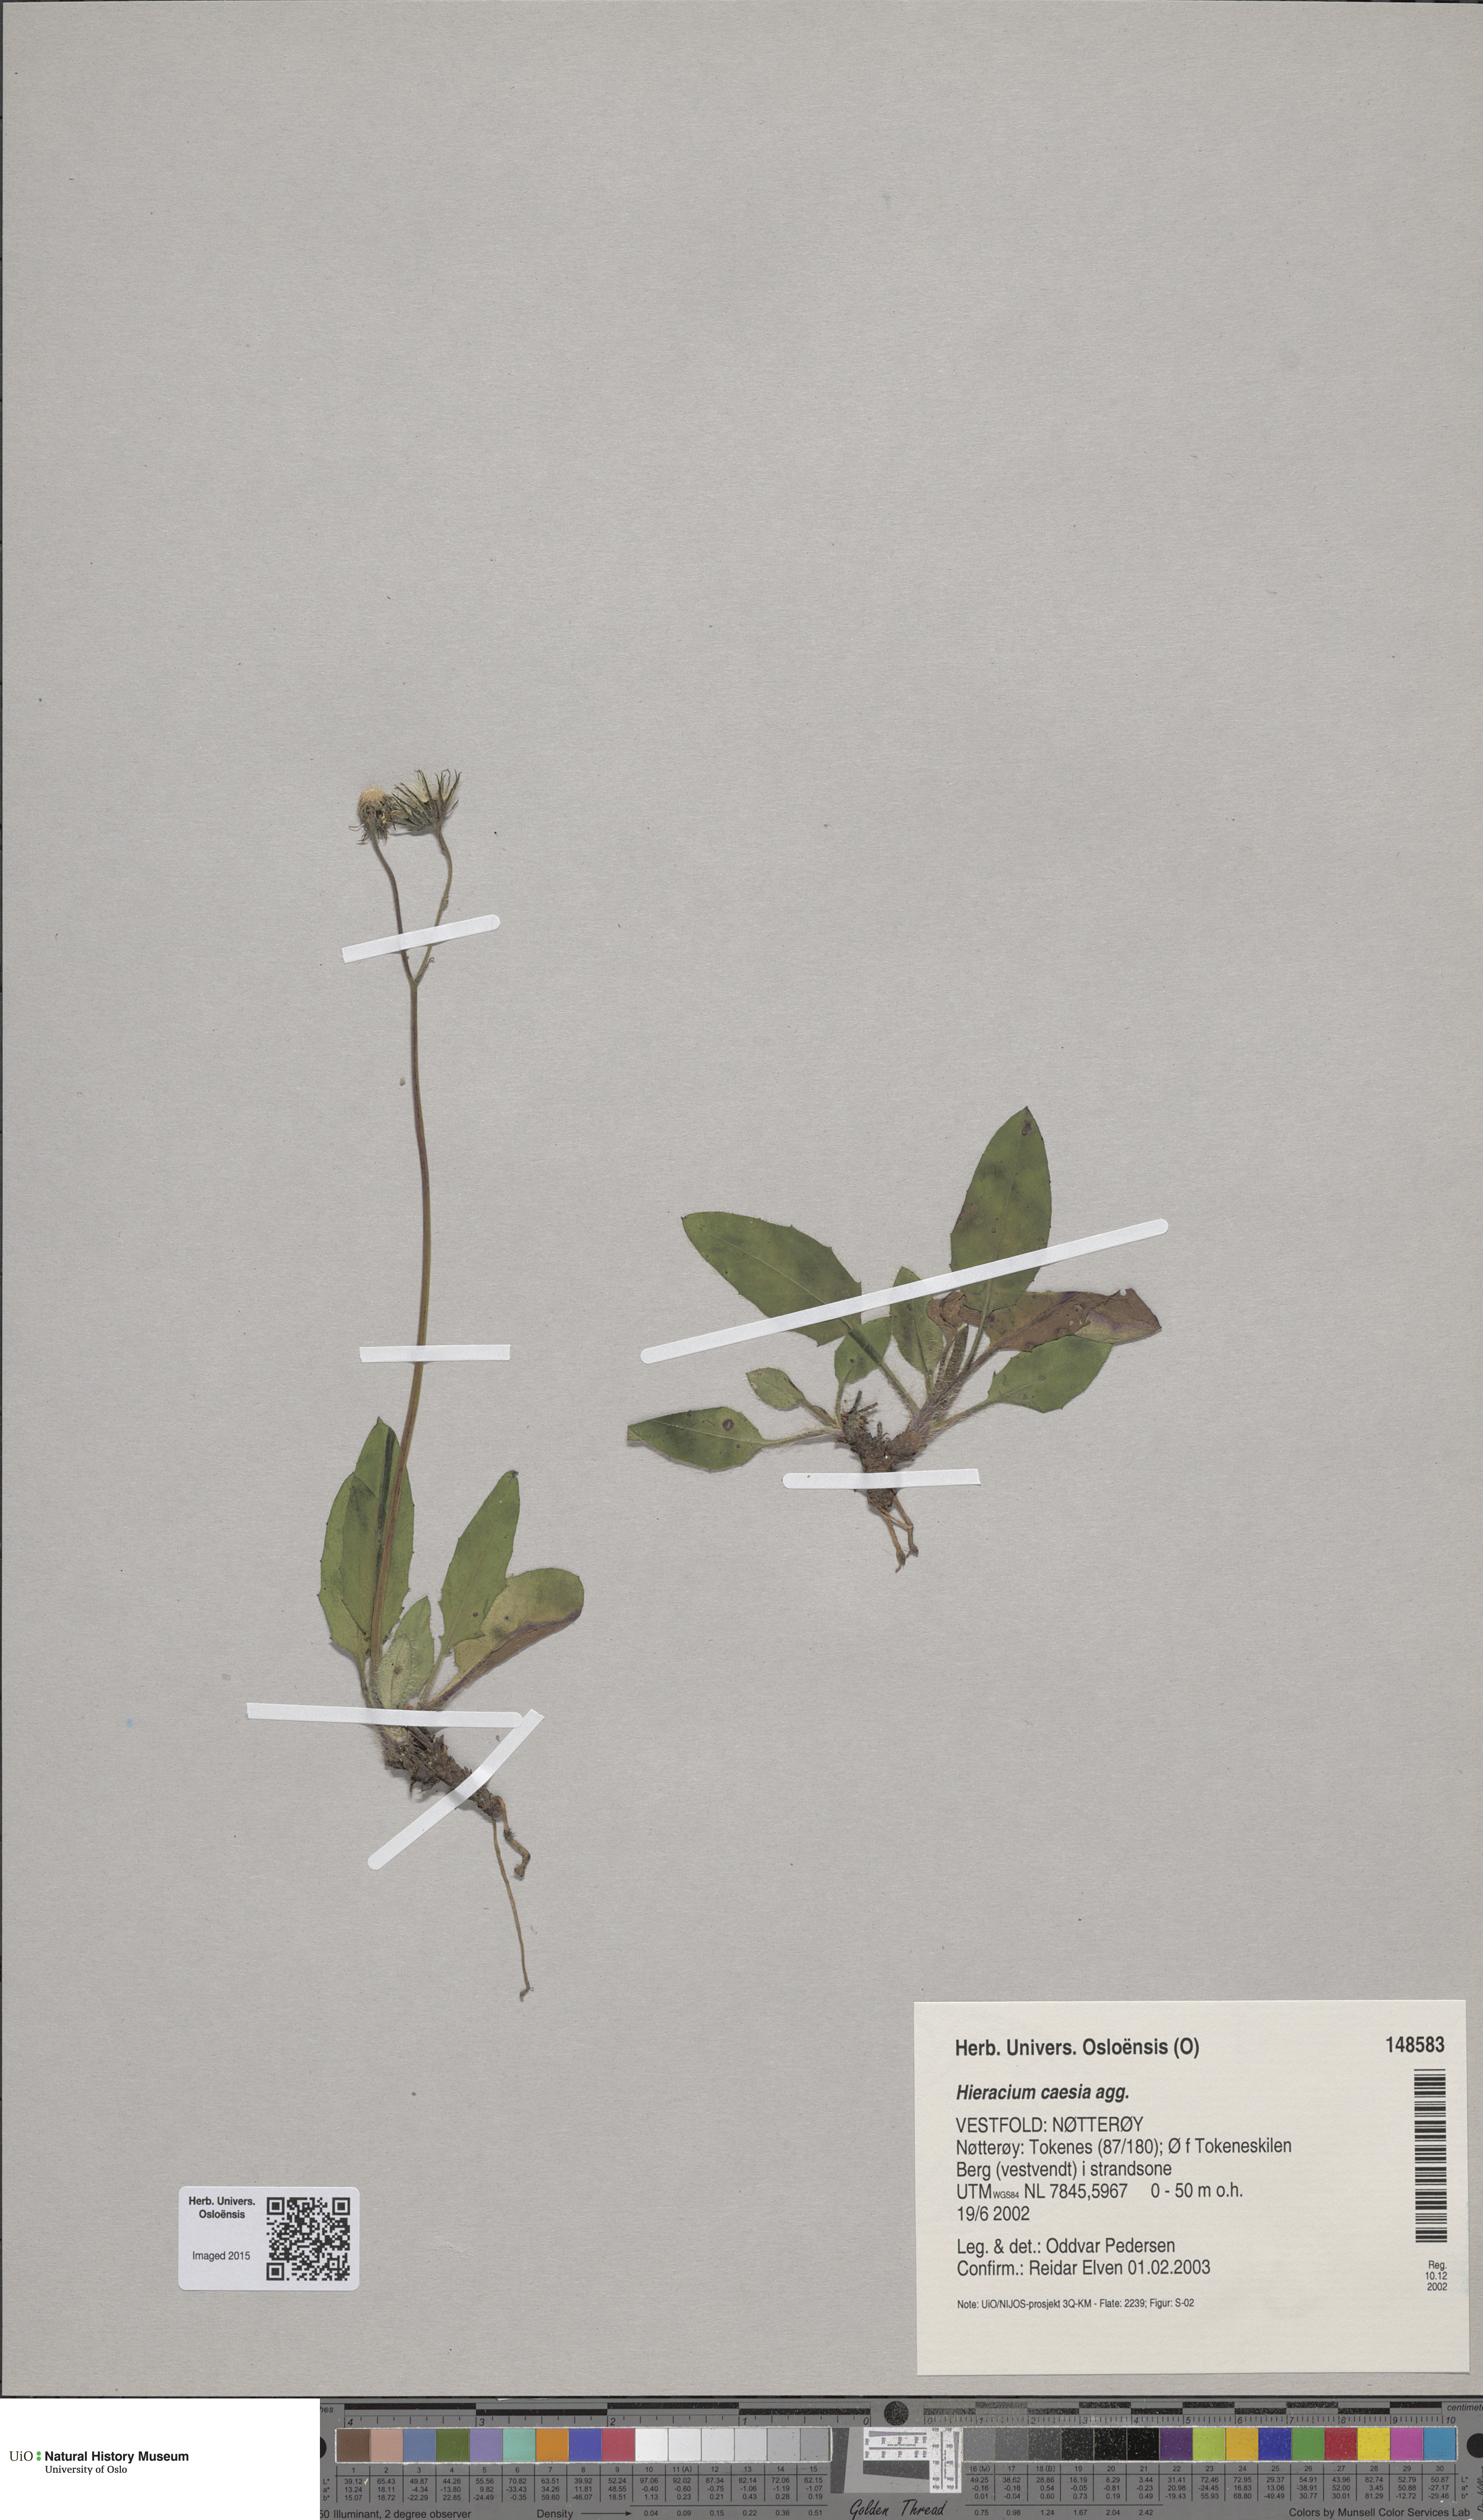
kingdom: Plantae
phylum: Tracheophyta
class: Magnoliopsida
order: Asterales
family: Asteraceae
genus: Hieracium
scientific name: Hieracium caesium
